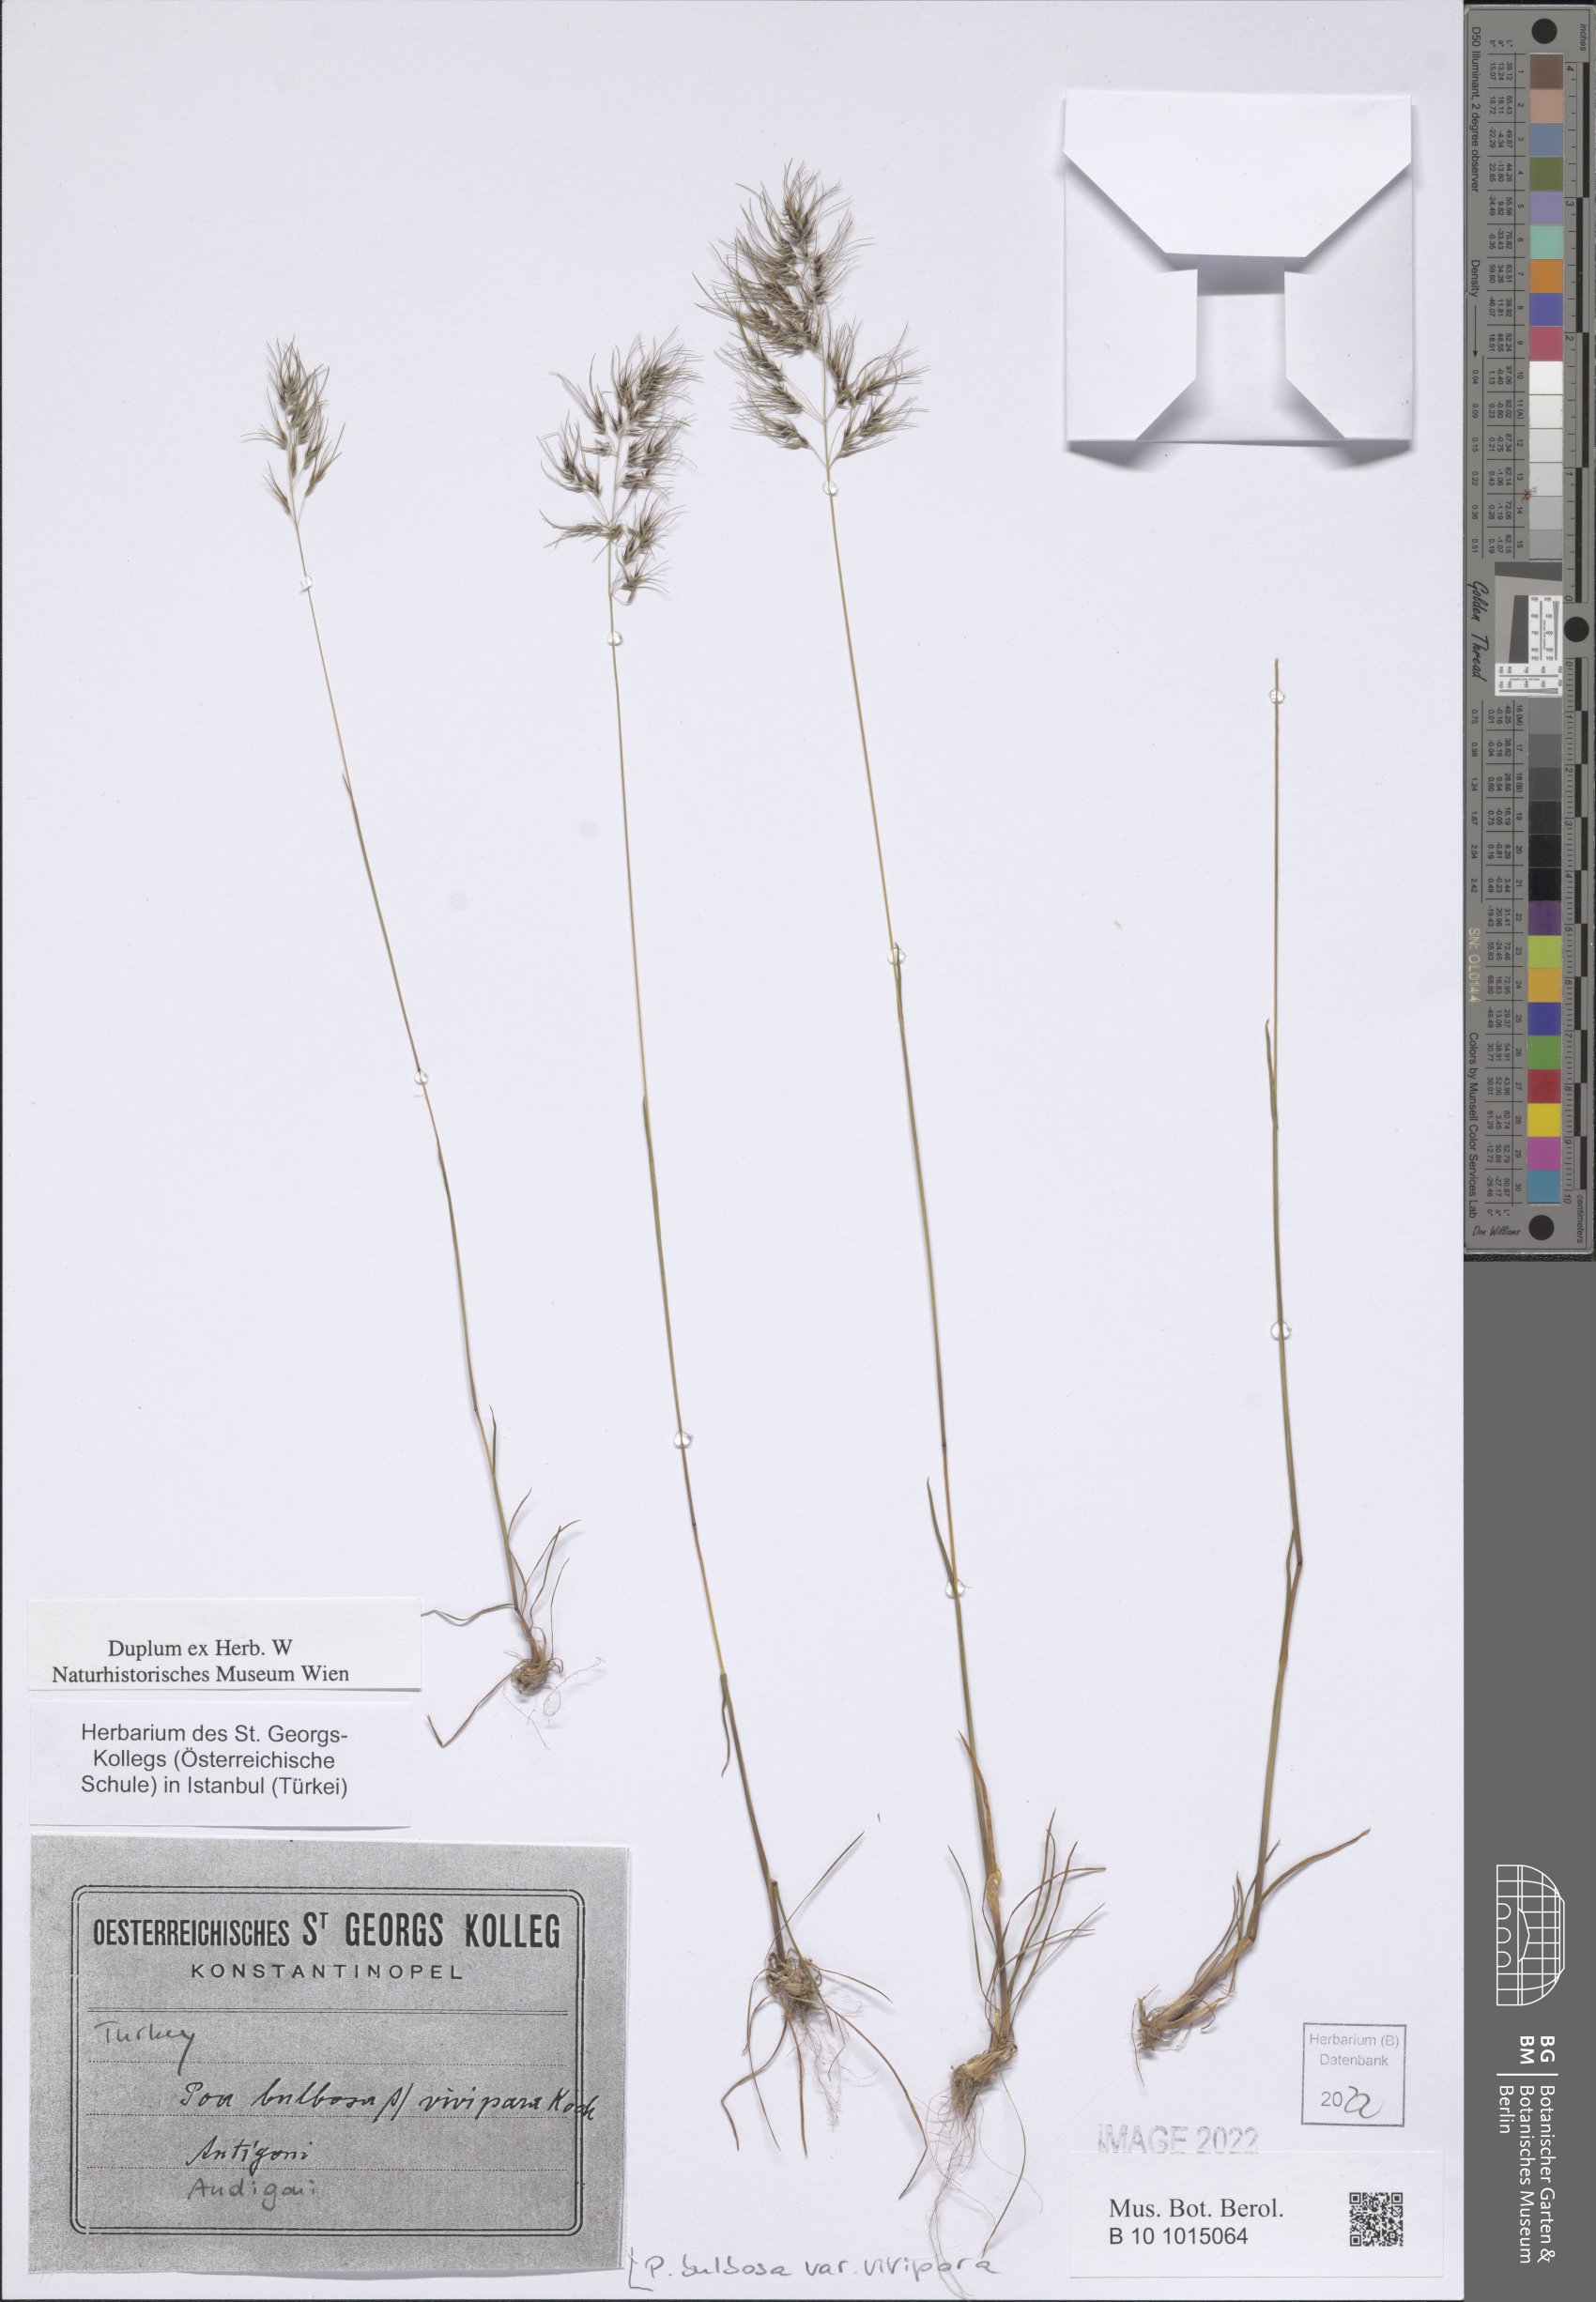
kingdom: Plantae
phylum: Tracheophyta
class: Liliopsida
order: Poales
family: Poaceae
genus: Poa
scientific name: Poa bulbosa
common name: Bulbous bluegrass
